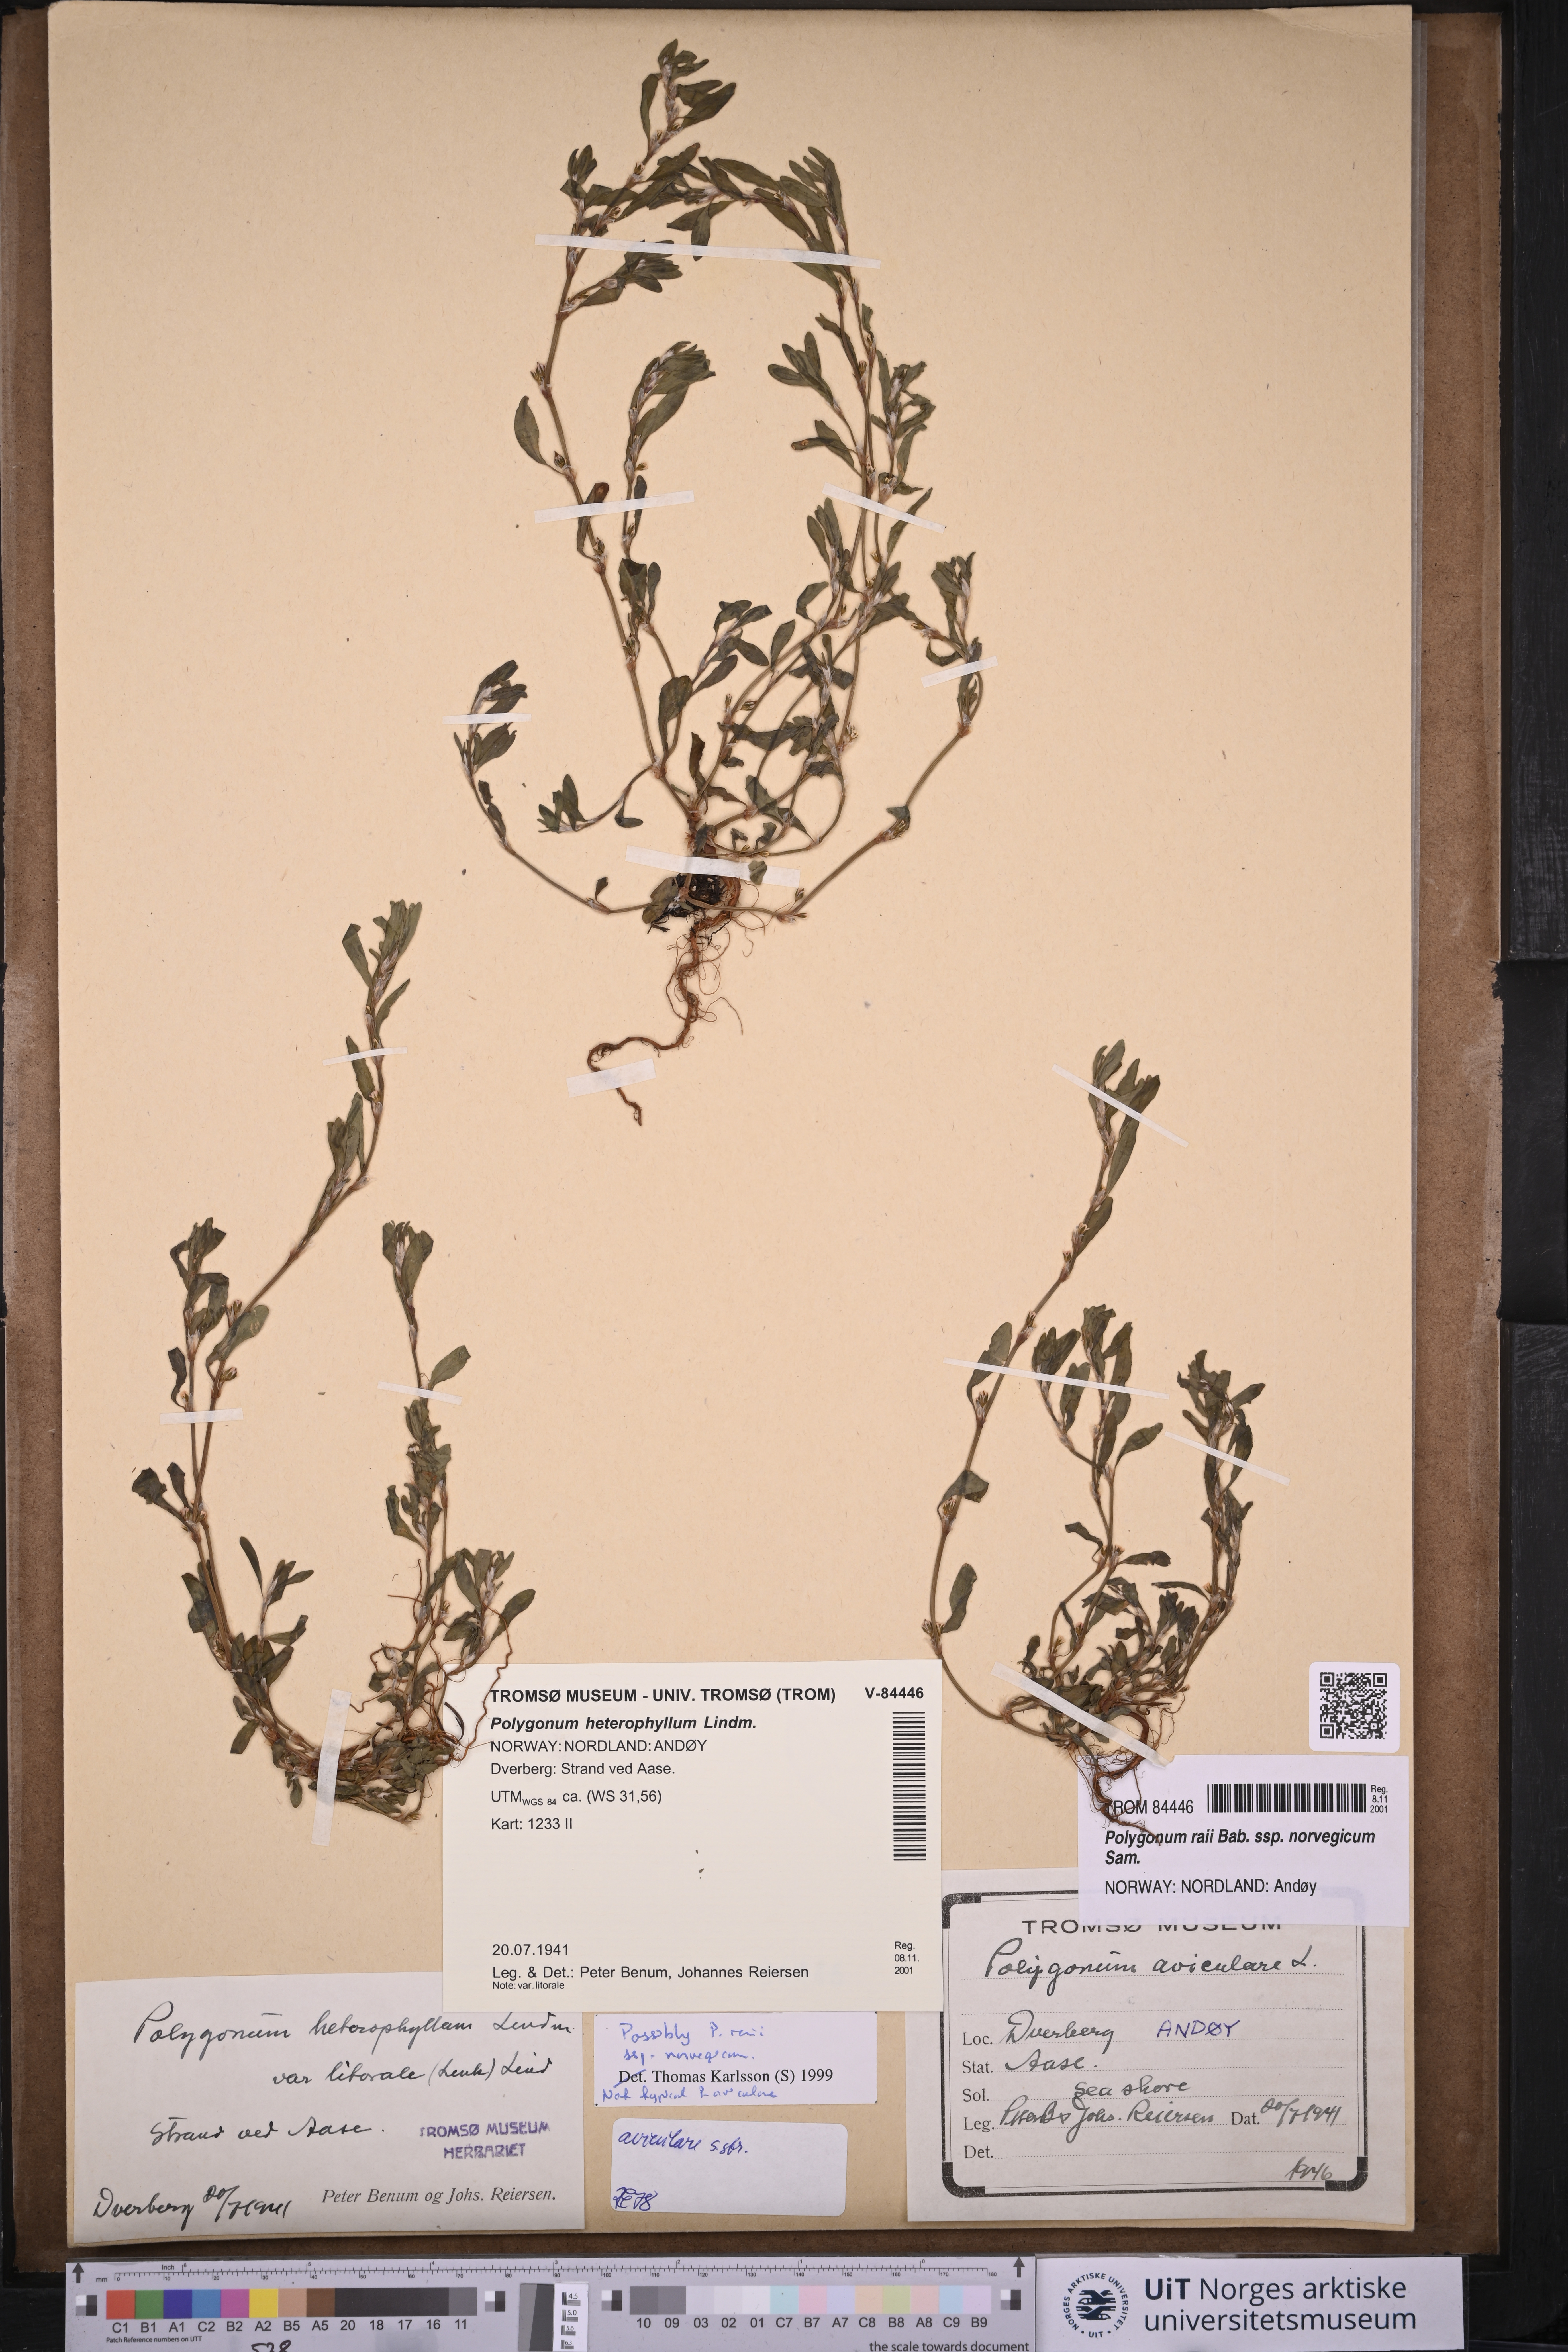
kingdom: Plantae
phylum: Tracheophyta
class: Magnoliopsida
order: Caryophyllales
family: Polygonaceae
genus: Polygonum
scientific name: Polygonum norvegicum
